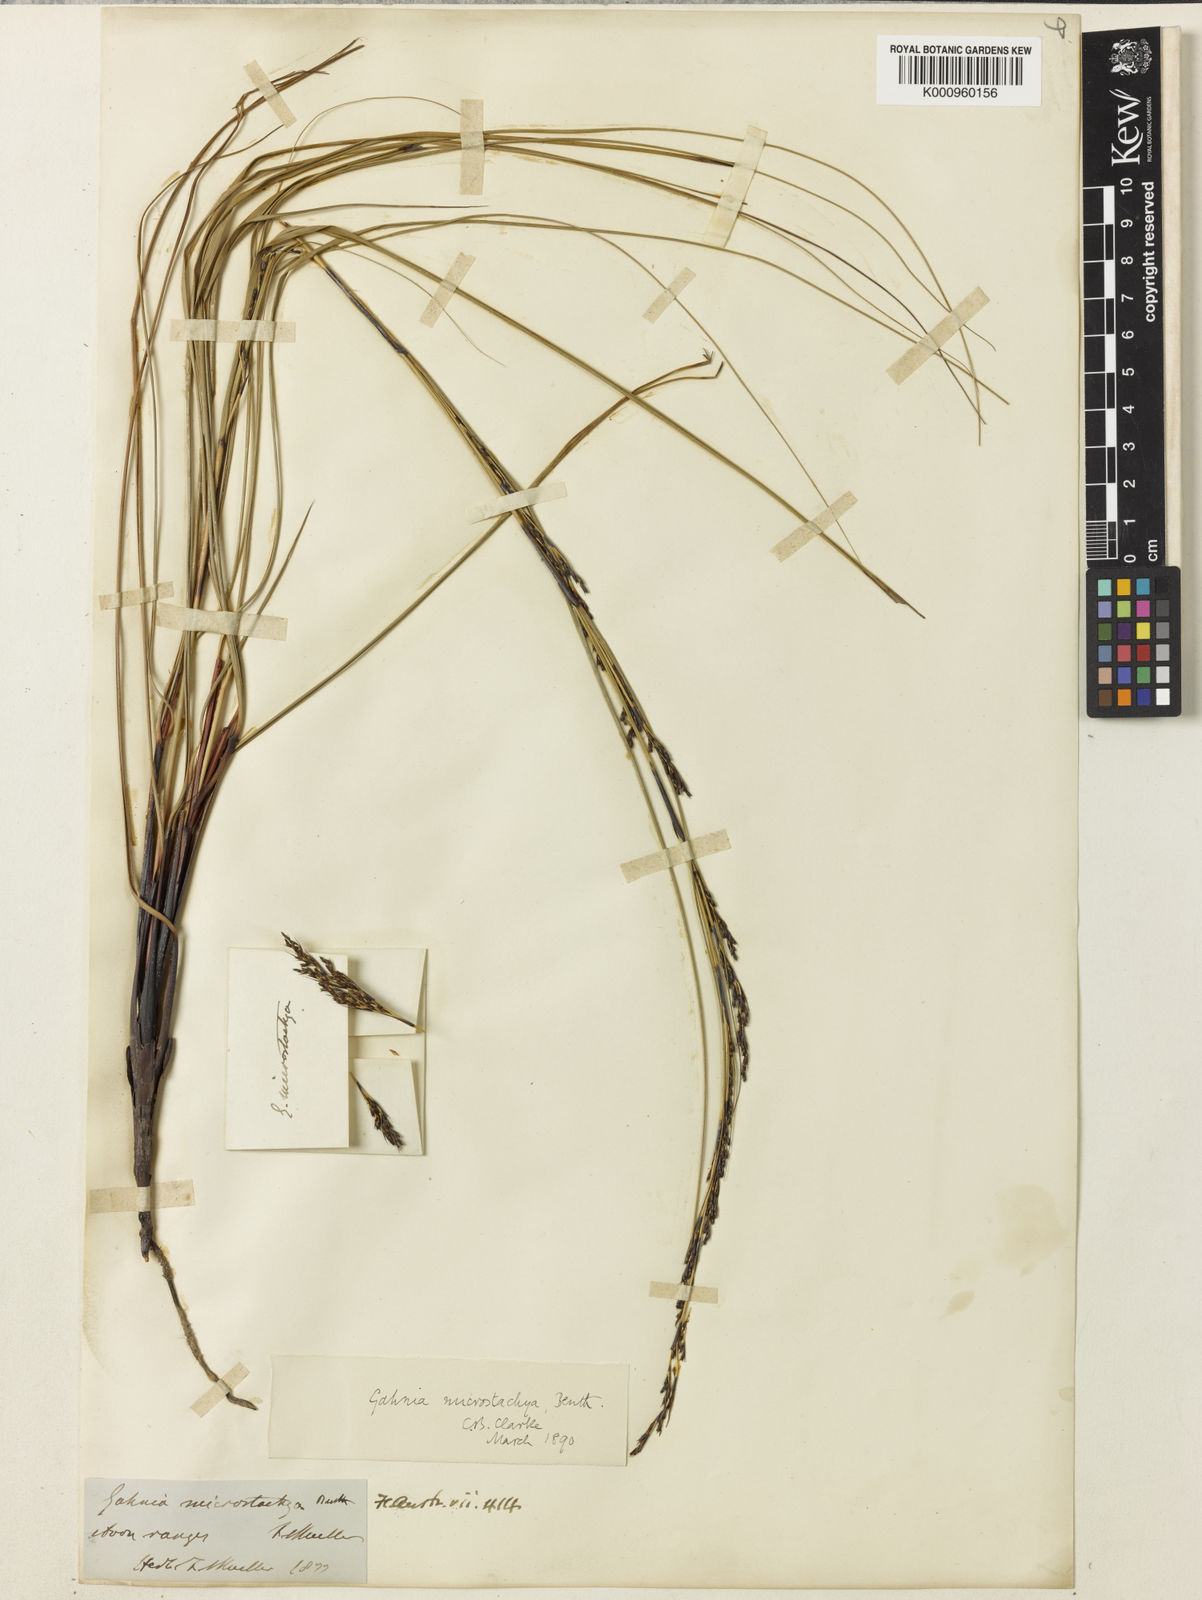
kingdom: Plantae
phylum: Tracheophyta
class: Liliopsida
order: Poales
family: Cyperaceae
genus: Gahnia
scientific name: Gahnia microstachya
